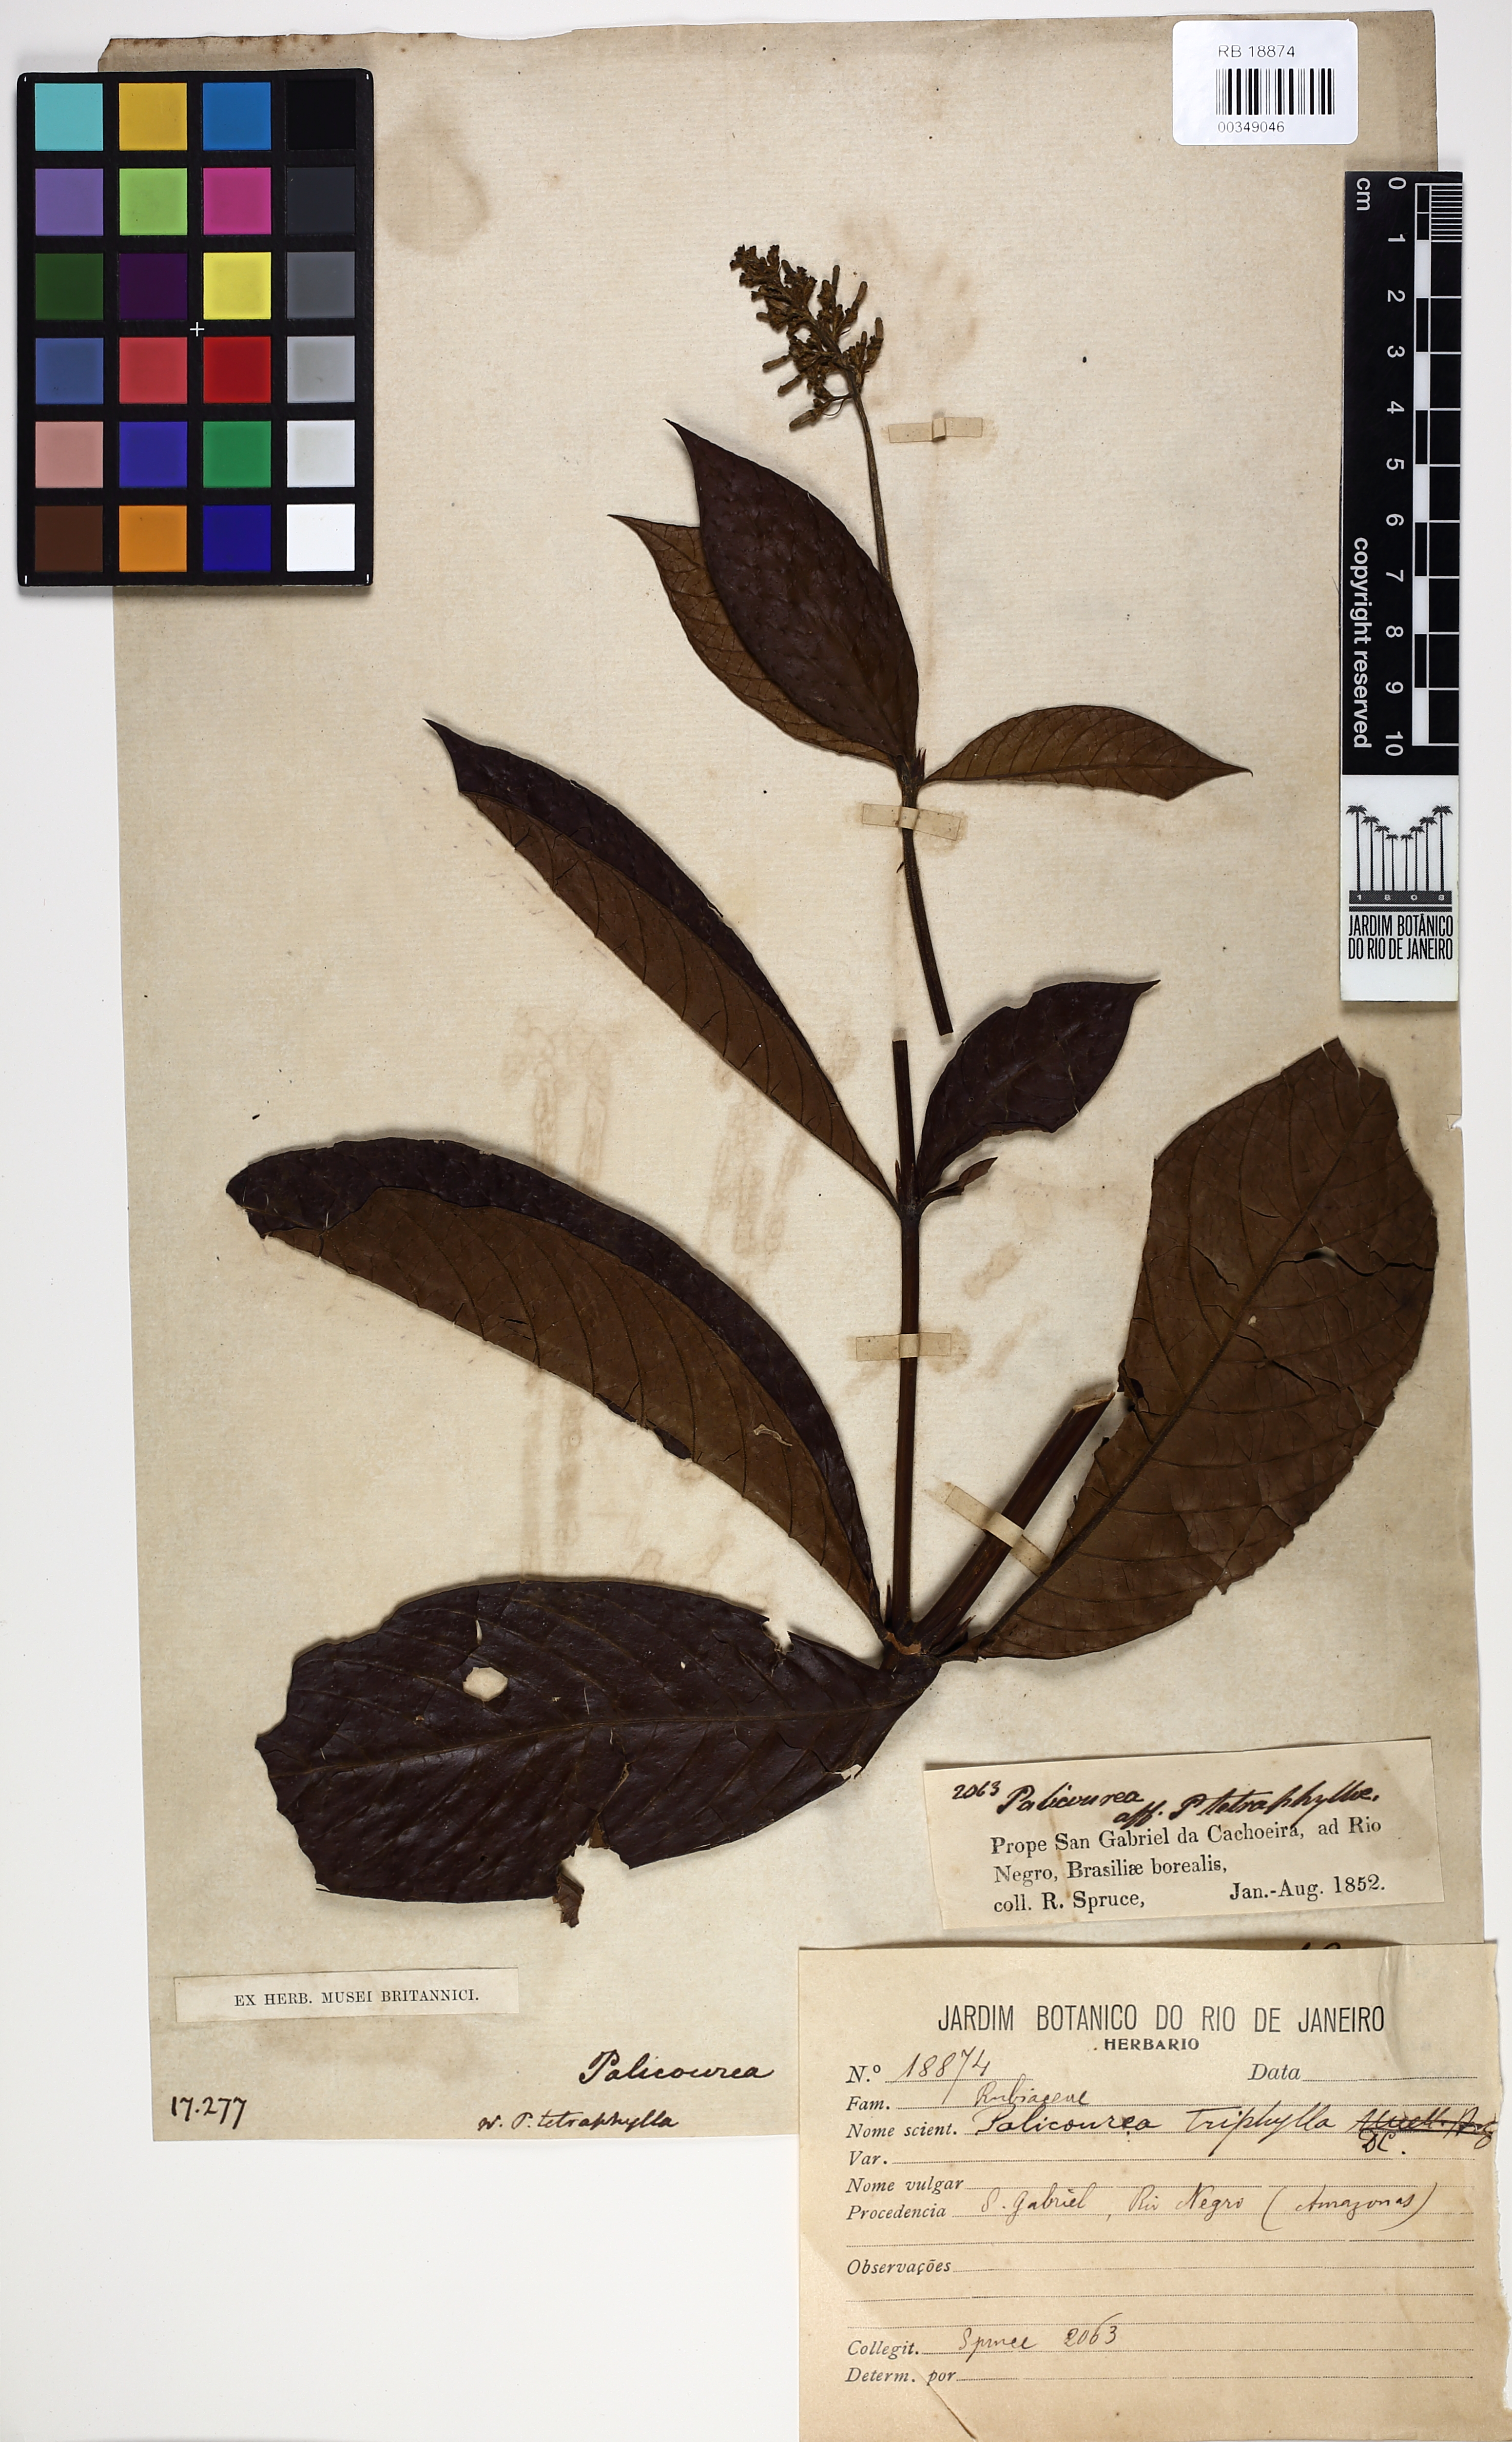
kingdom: Plantae
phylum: Tracheophyta
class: Magnoliopsida
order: Gentianales
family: Rubiaceae
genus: Palicourea
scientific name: Palicourea triphylla
